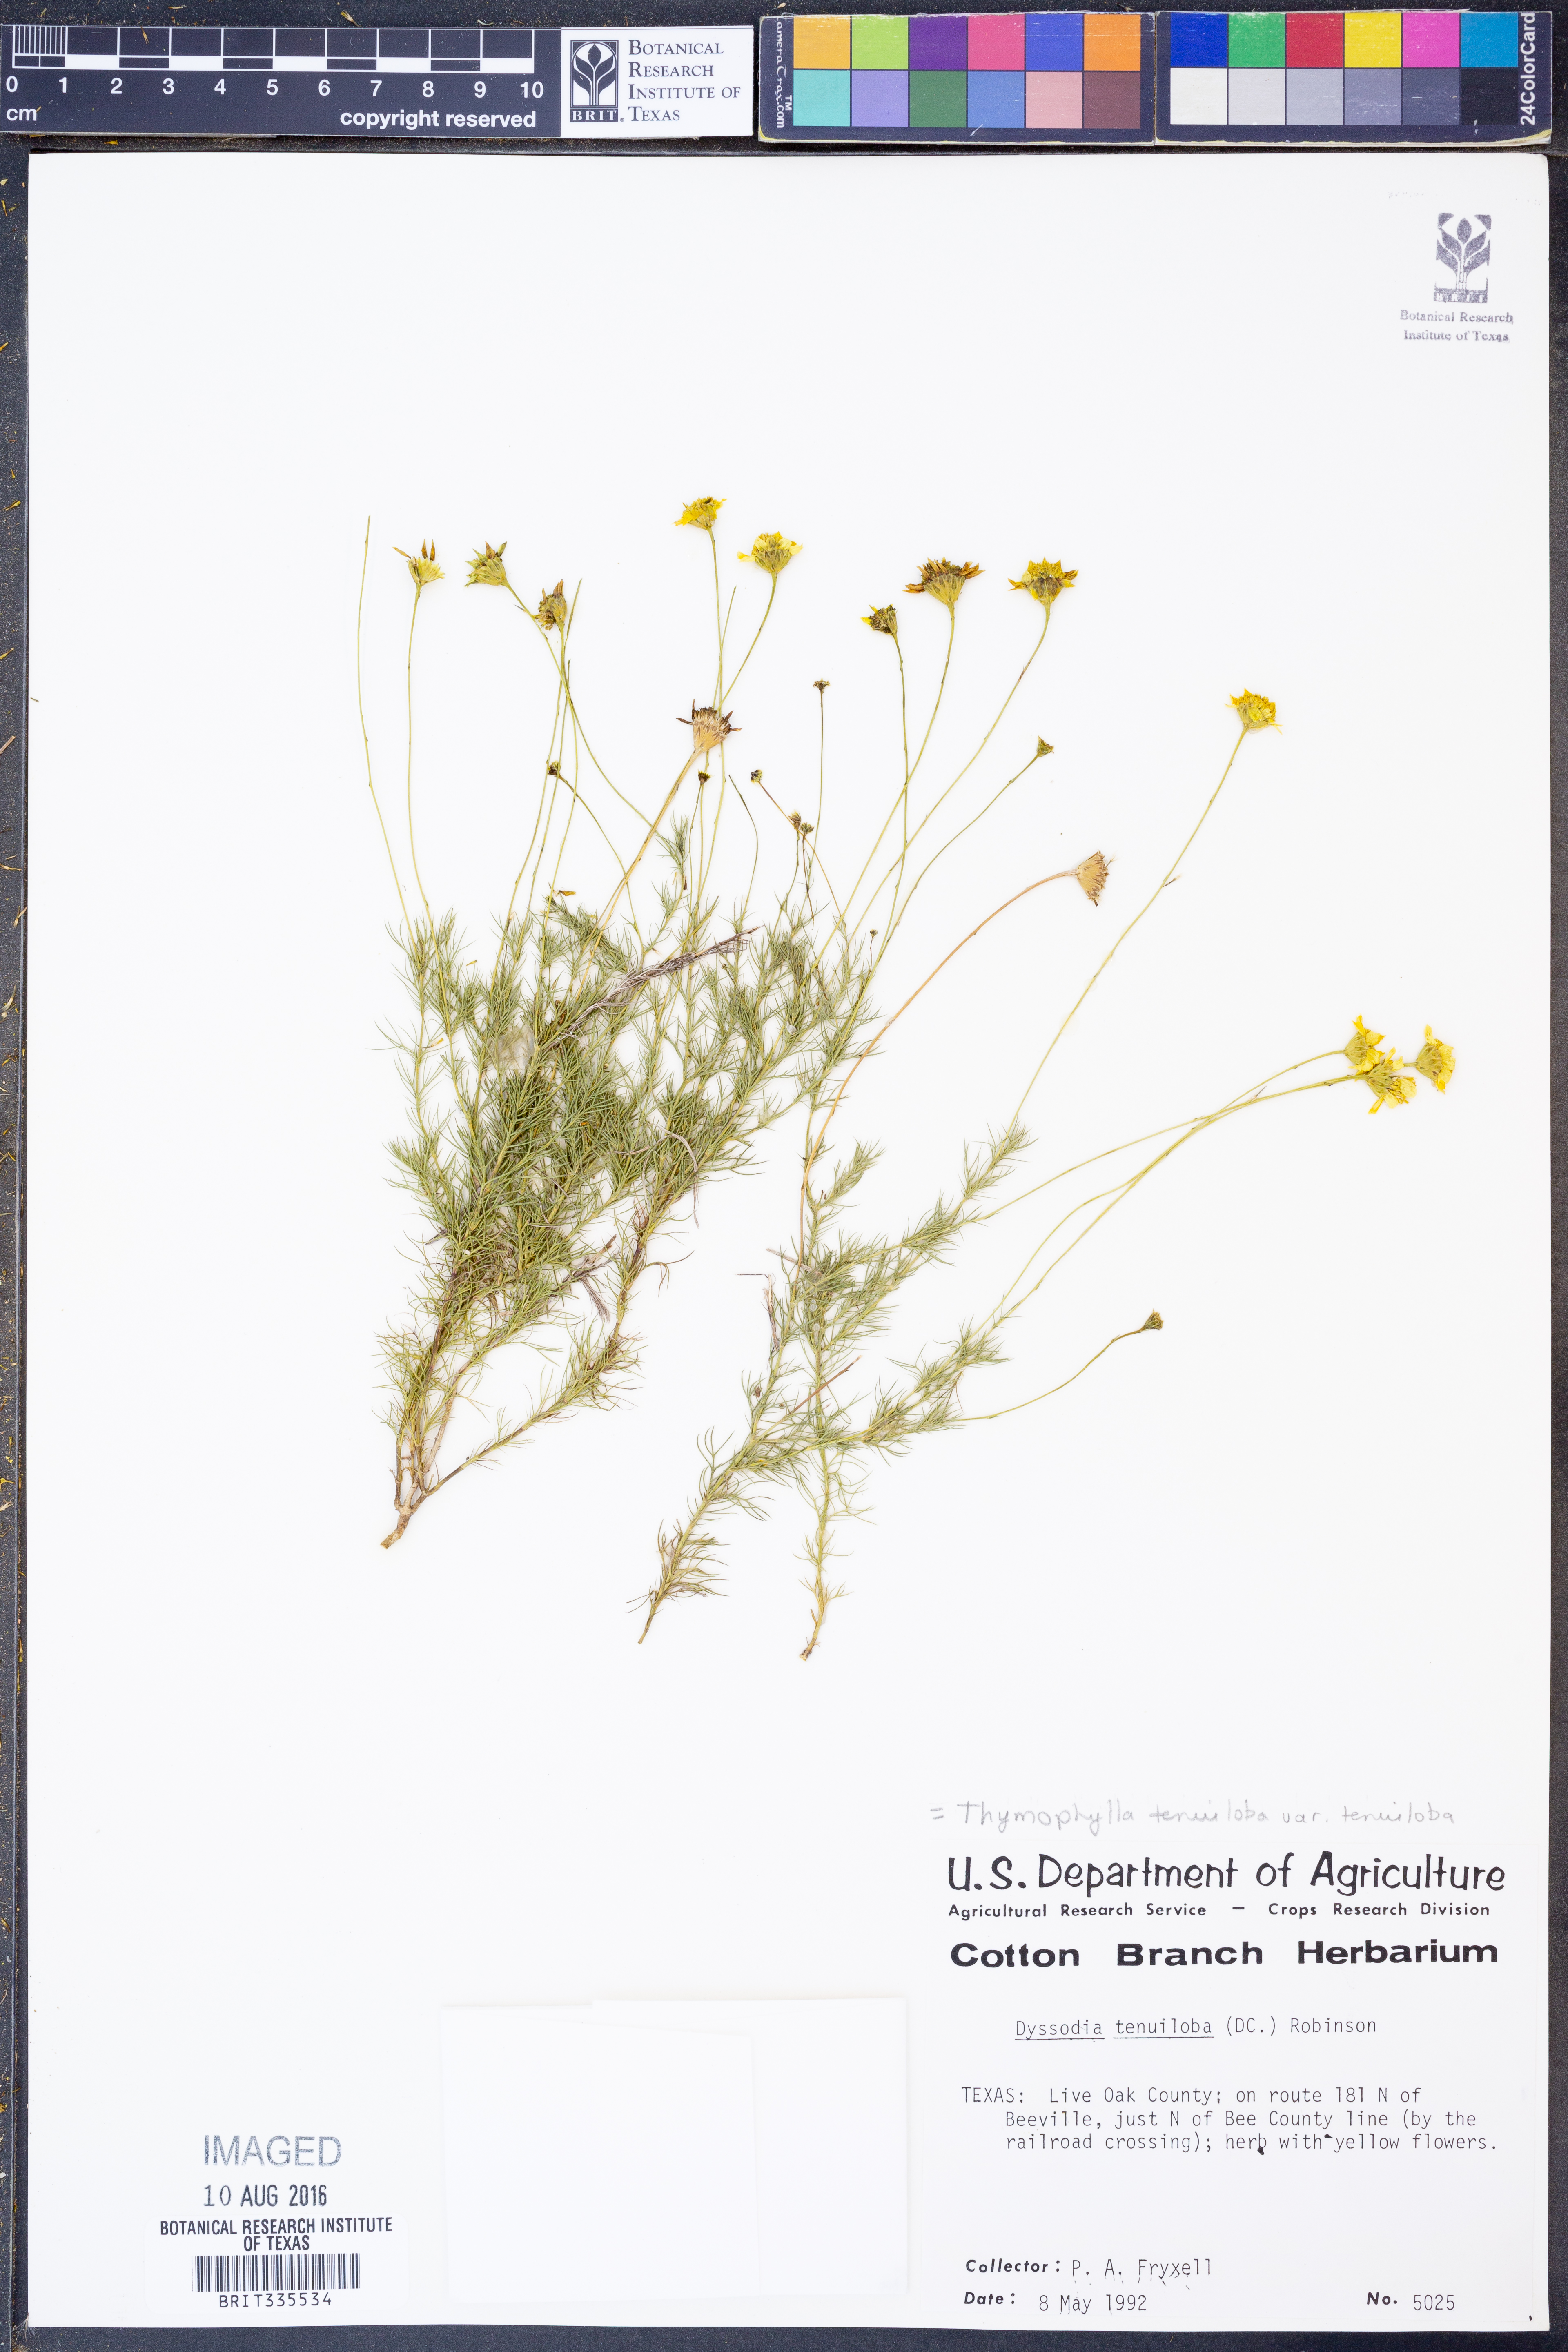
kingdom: Plantae
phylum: Tracheophyta
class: Magnoliopsida
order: Asterales
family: Asteraceae
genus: Thymophylla
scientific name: Thymophylla tenuiloba
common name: Dahlberg's daisy
